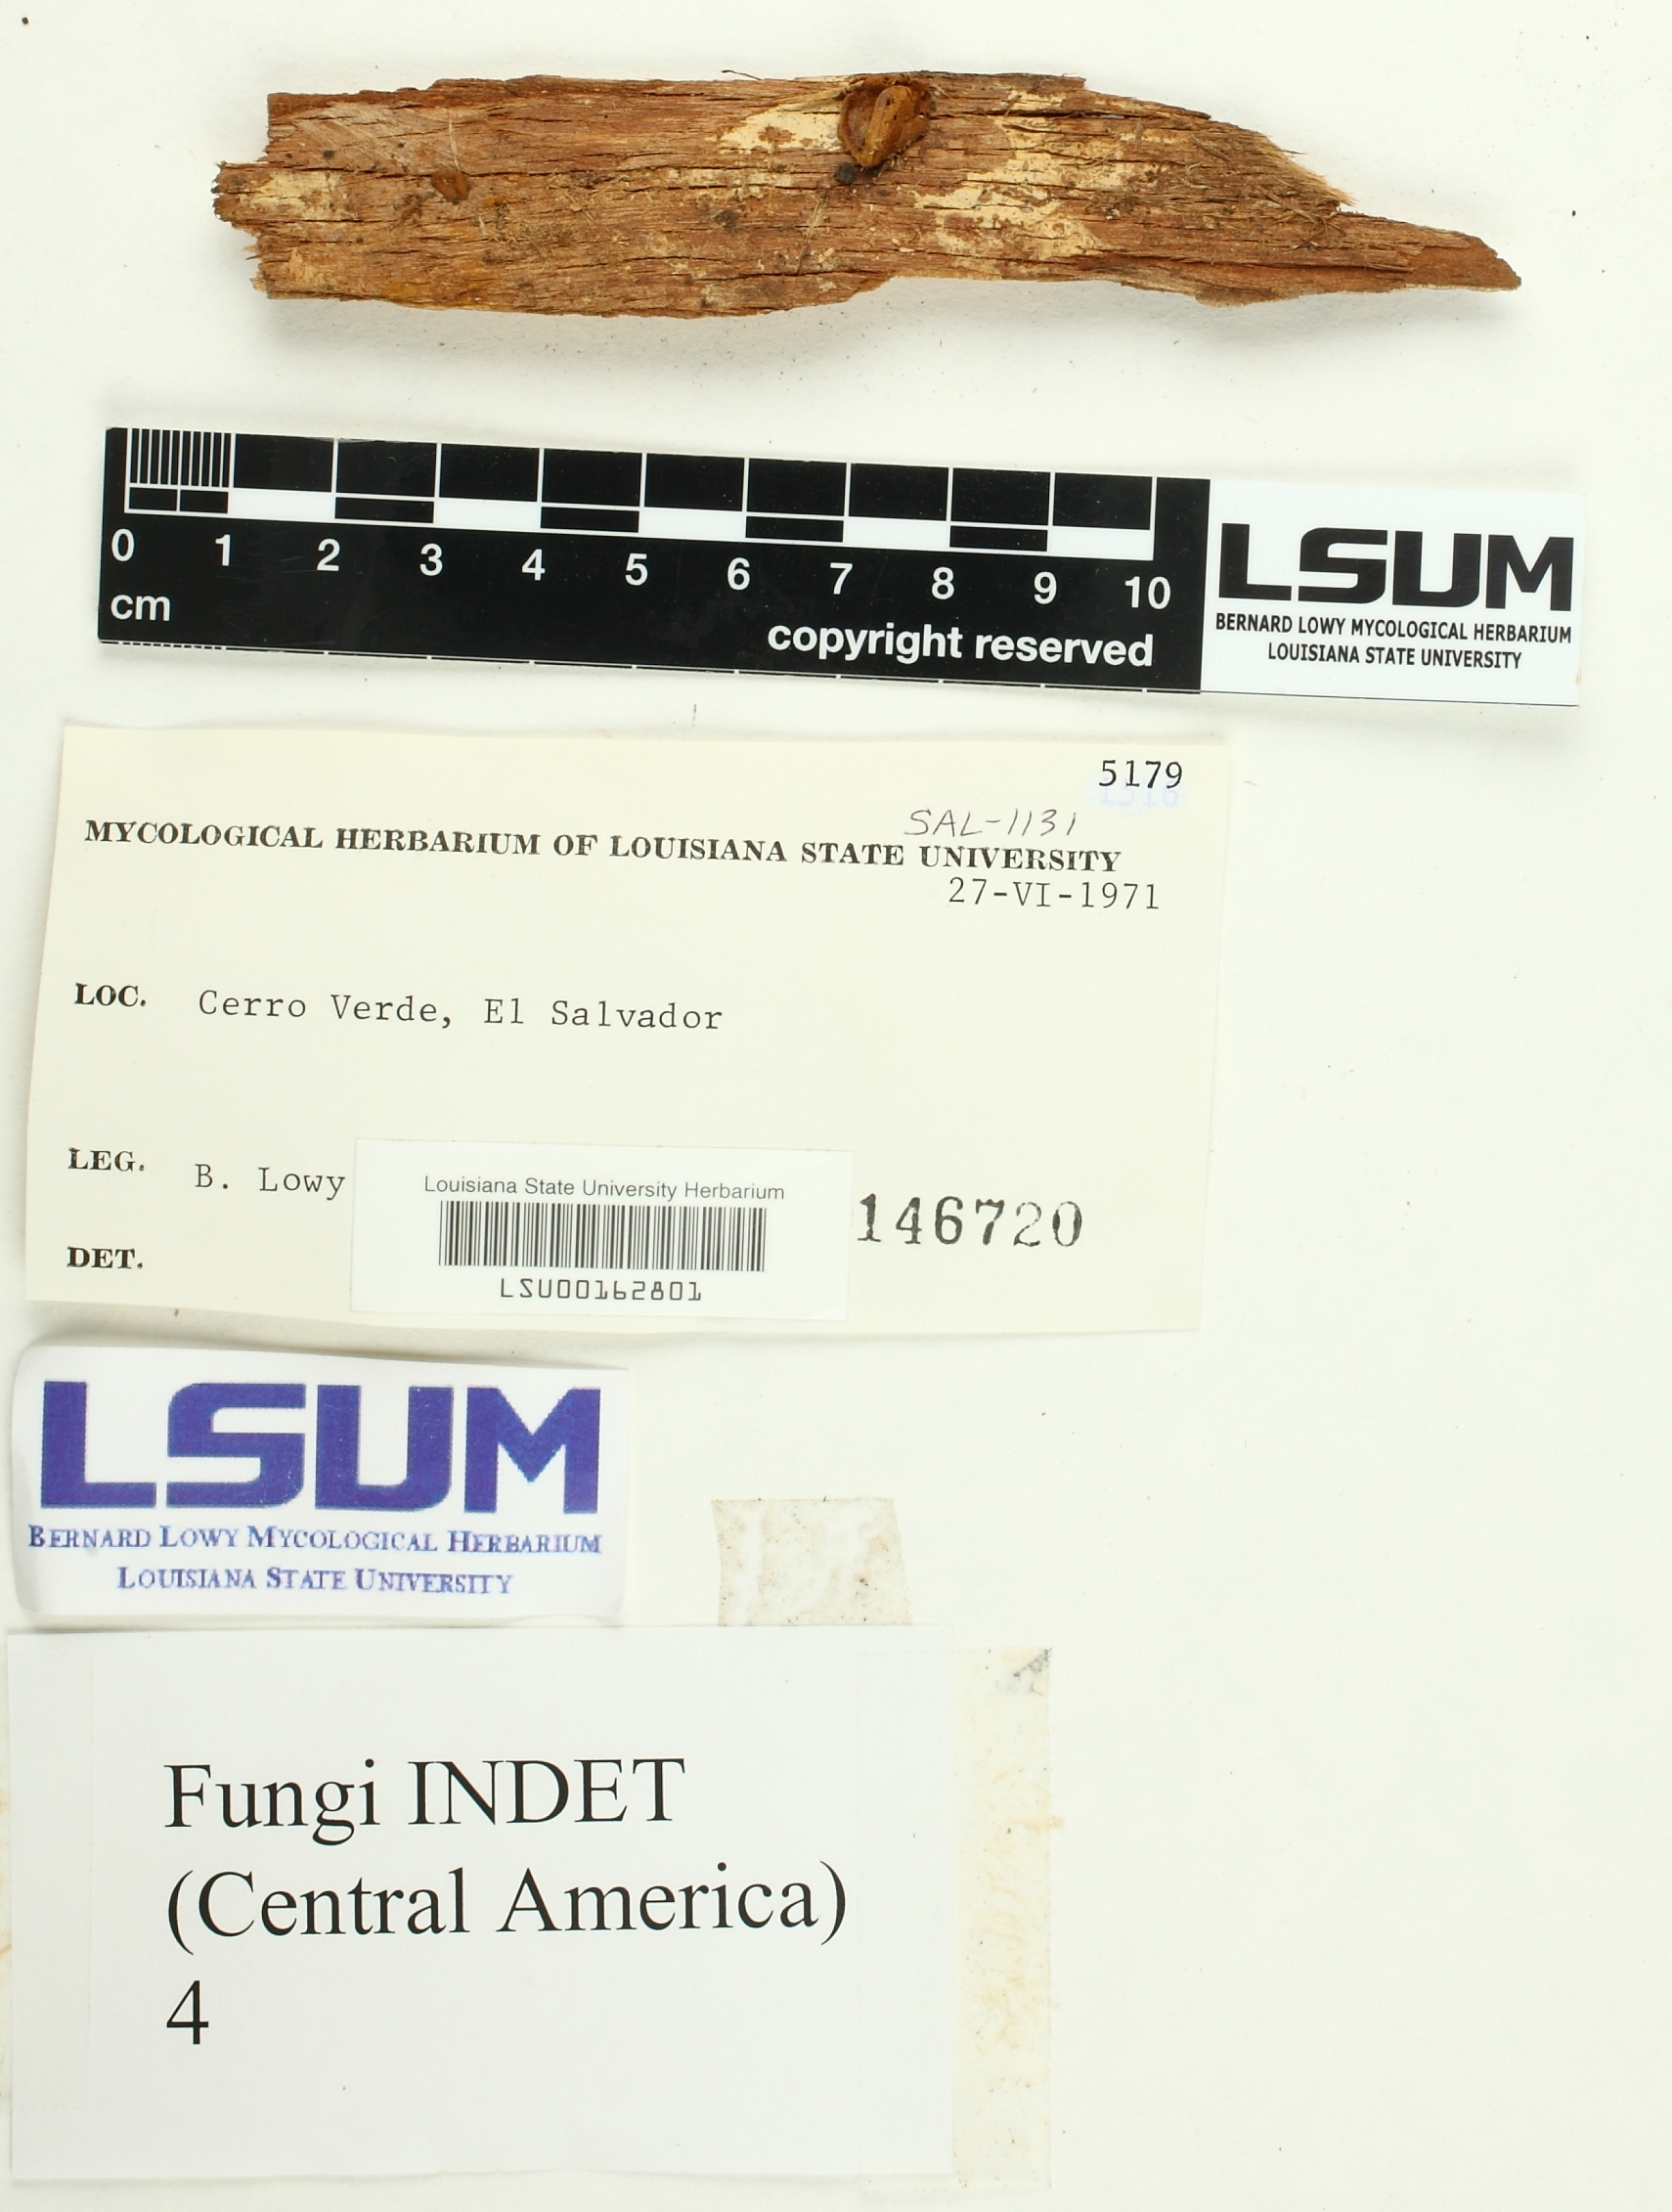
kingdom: Fungi
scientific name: Fungi
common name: Fungi
